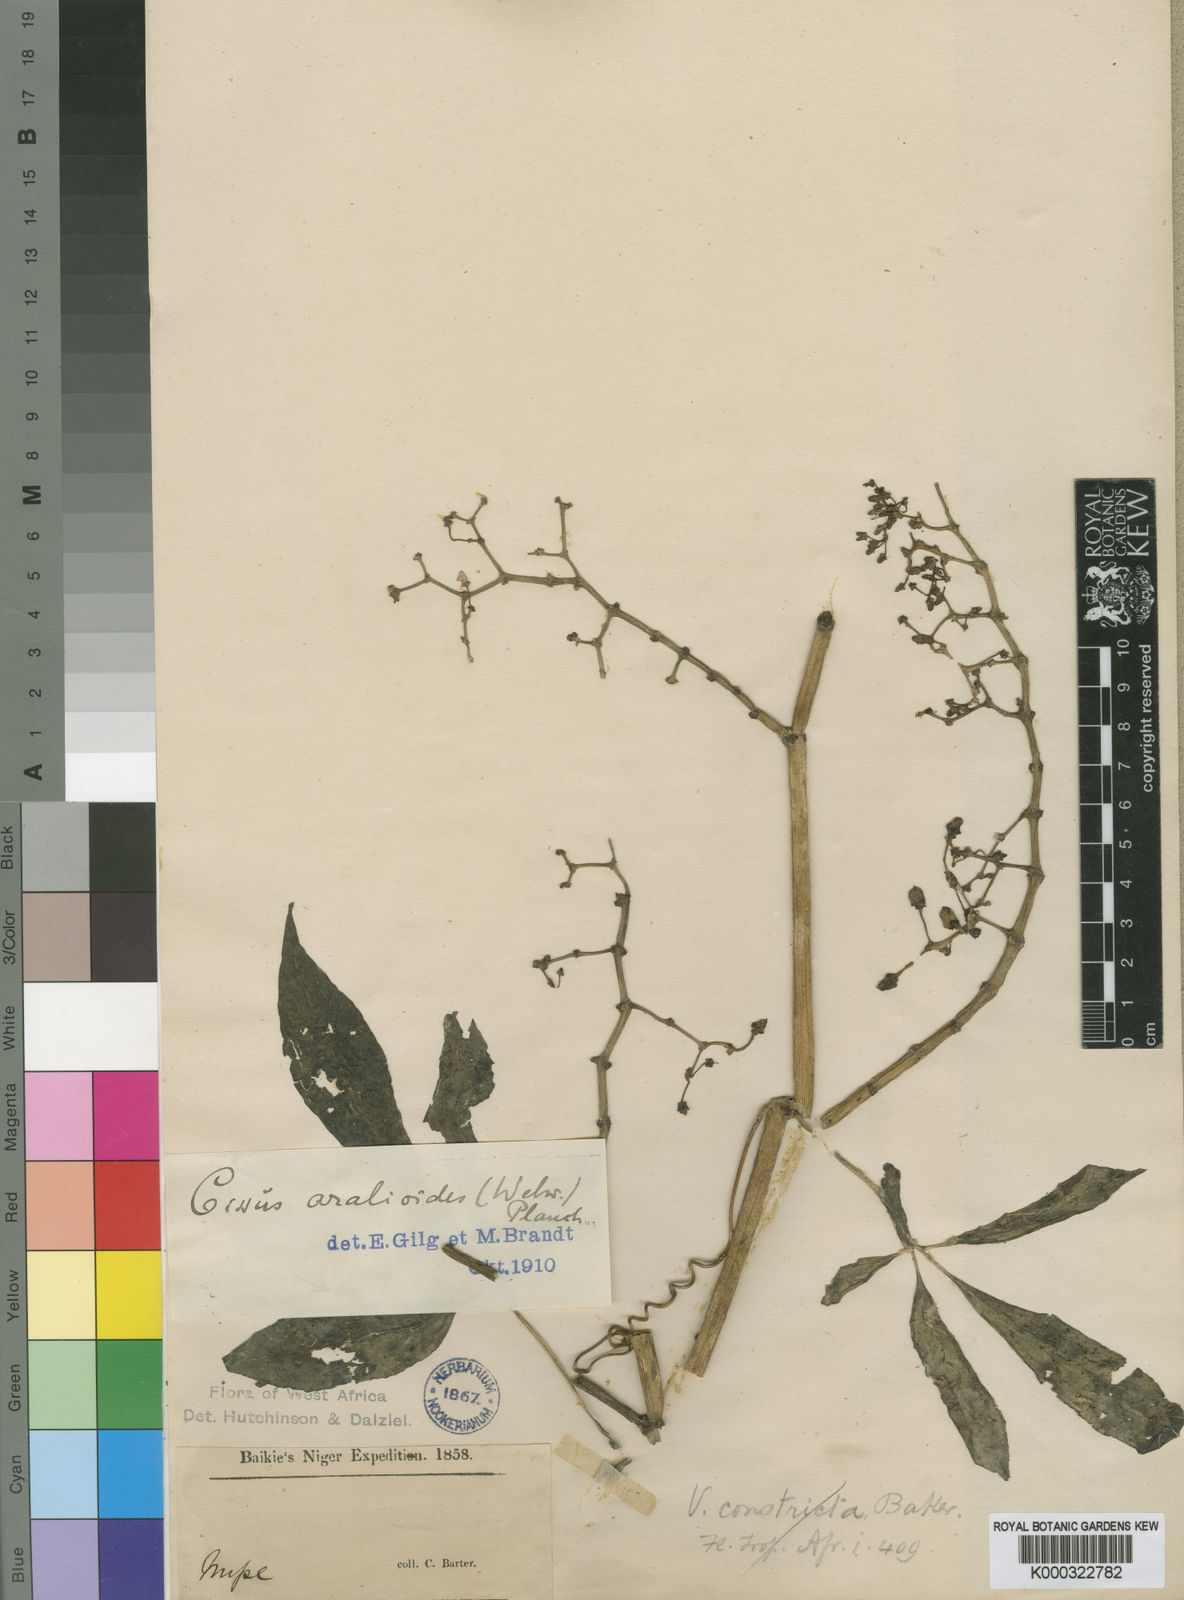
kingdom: Plantae
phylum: Tracheophyta
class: Magnoliopsida
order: Vitales
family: Vitaceae
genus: Cissus
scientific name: Cissus aralioides
